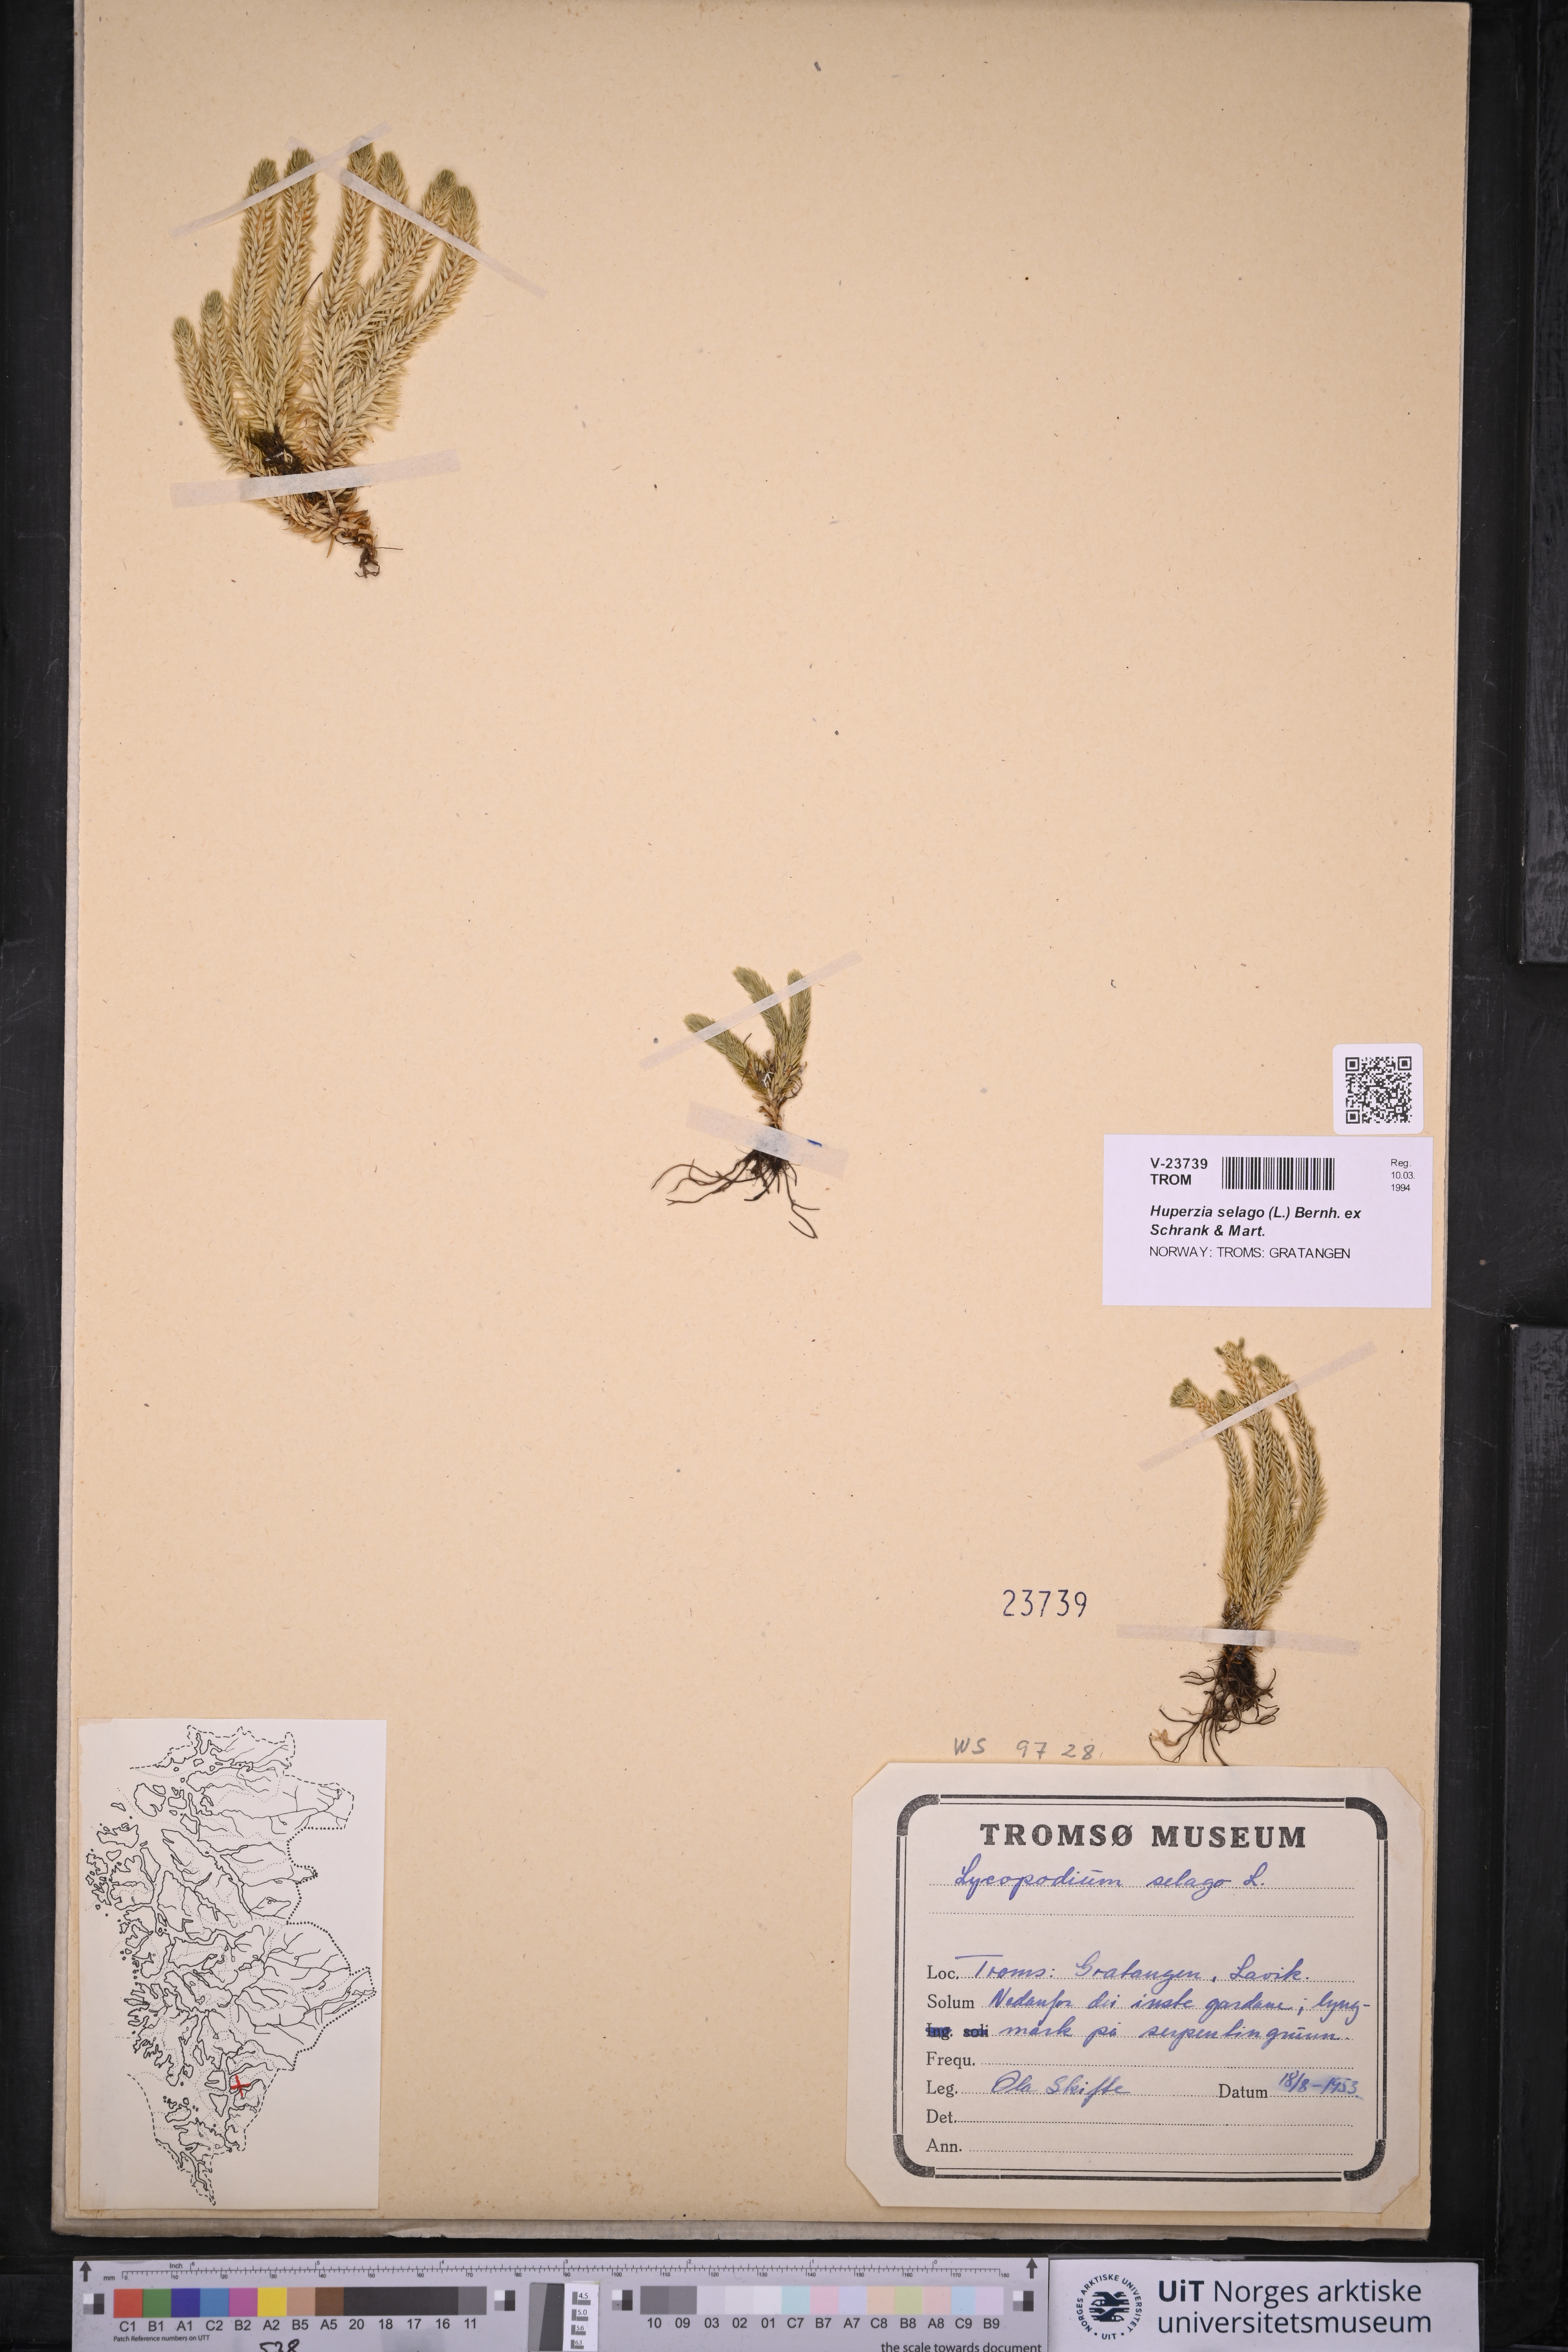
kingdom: Plantae
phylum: Tracheophyta
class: Lycopodiopsida
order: Lycopodiales
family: Lycopodiaceae
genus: Huperzia
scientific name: Huperzia selago
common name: Northern firmoss
